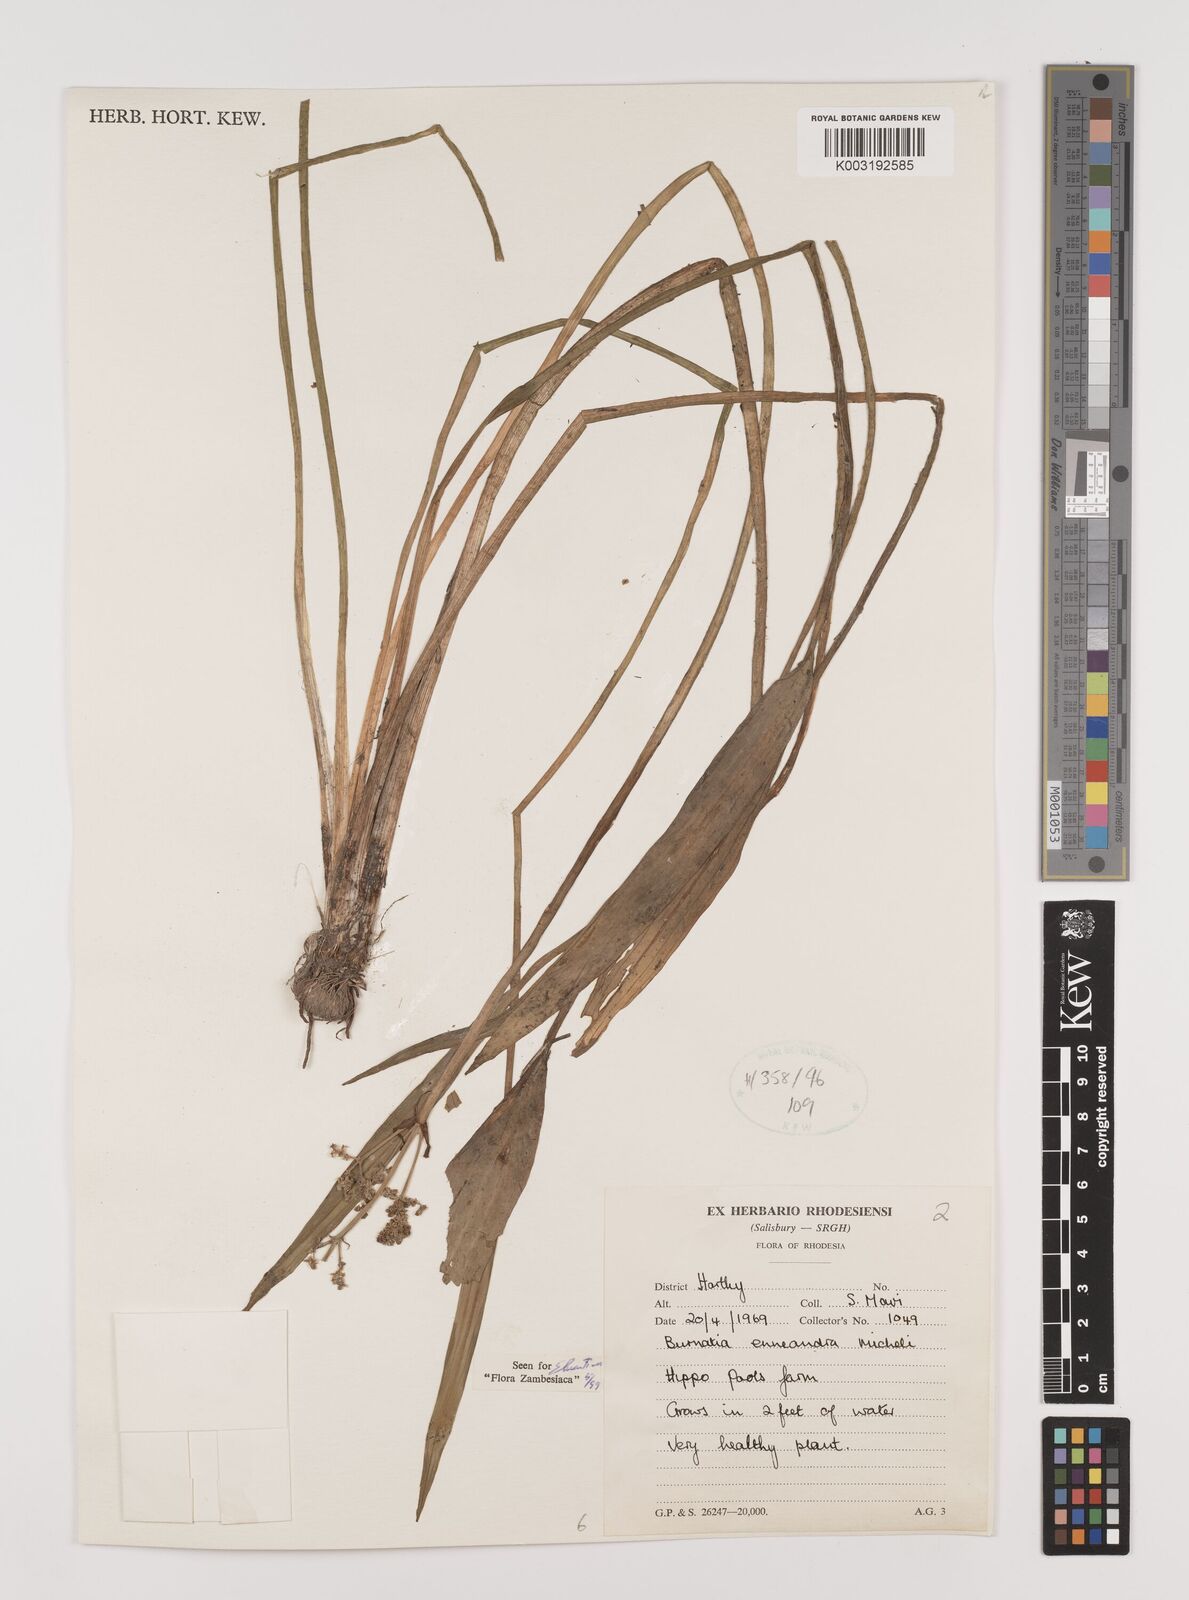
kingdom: Plantae
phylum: Tracheophyta
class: Liliopsida
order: Alismatales
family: Alismataceae
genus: Burnatia
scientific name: Burnatia enneandra
